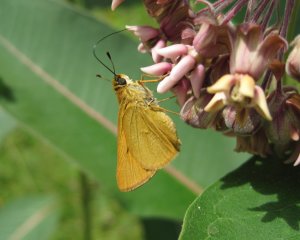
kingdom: Animalia
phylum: Arthropoda
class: Insecta
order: Lepidoptera
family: Hesperiidae
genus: Atrytone
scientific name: Atrytone delaware
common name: Delaware Skipper
